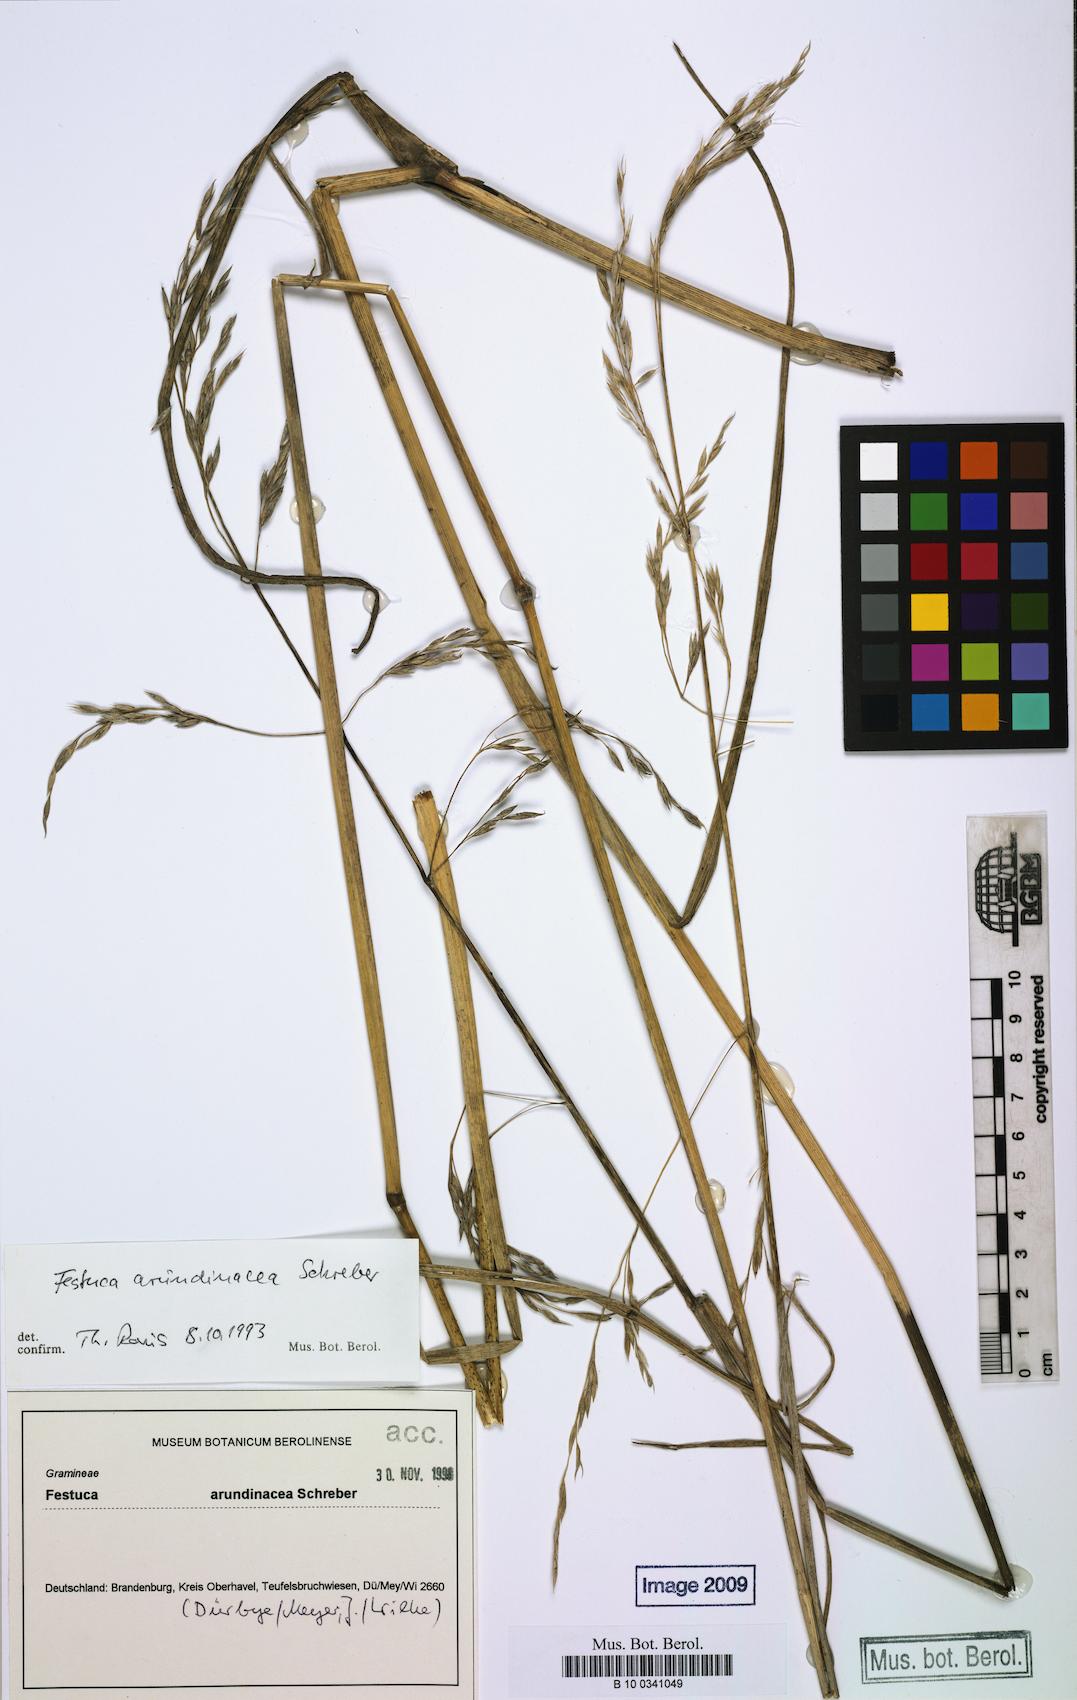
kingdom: Plantae
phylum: Tracheophyta
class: Liliopsida
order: Poales
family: Poaceae
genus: Lolium
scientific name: Lolium arundinaceum
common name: Reed fescue
